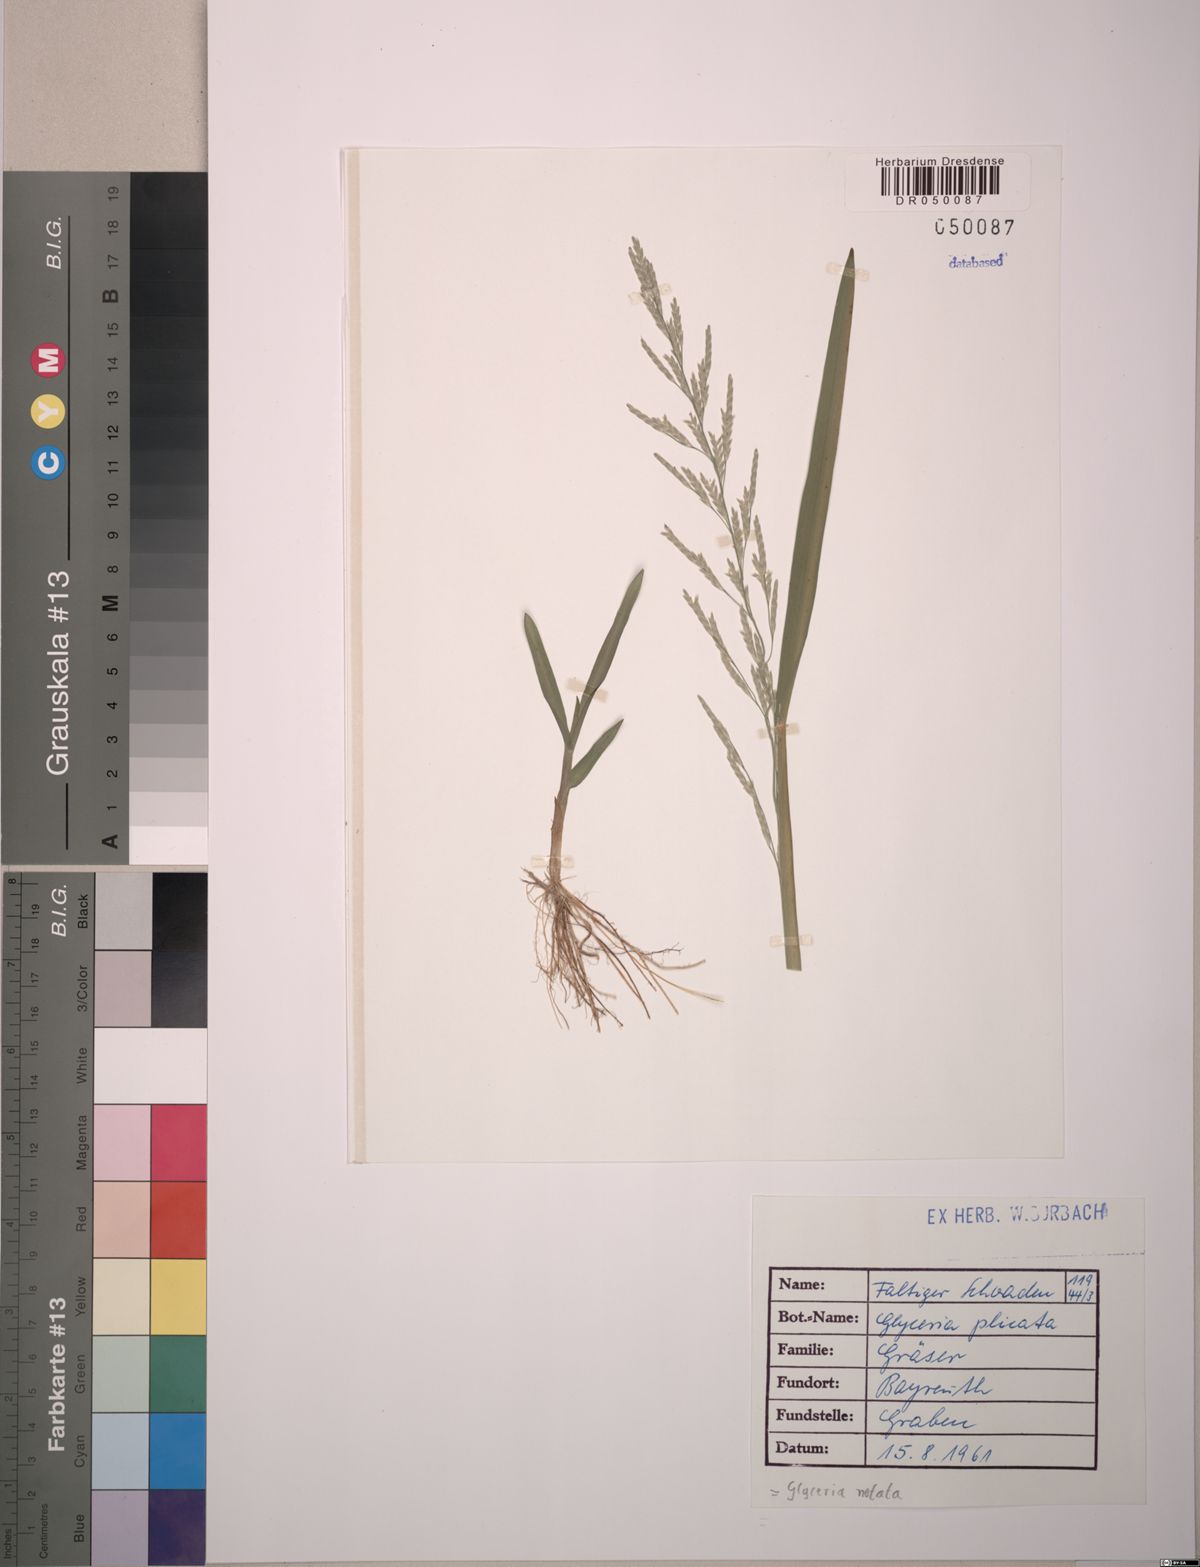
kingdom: Plantae
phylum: Tracheophyta
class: Liliopsida
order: Poales
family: Poaceae
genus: Glyceria
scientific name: Glyceria notata
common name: Plicate sweet-grass
